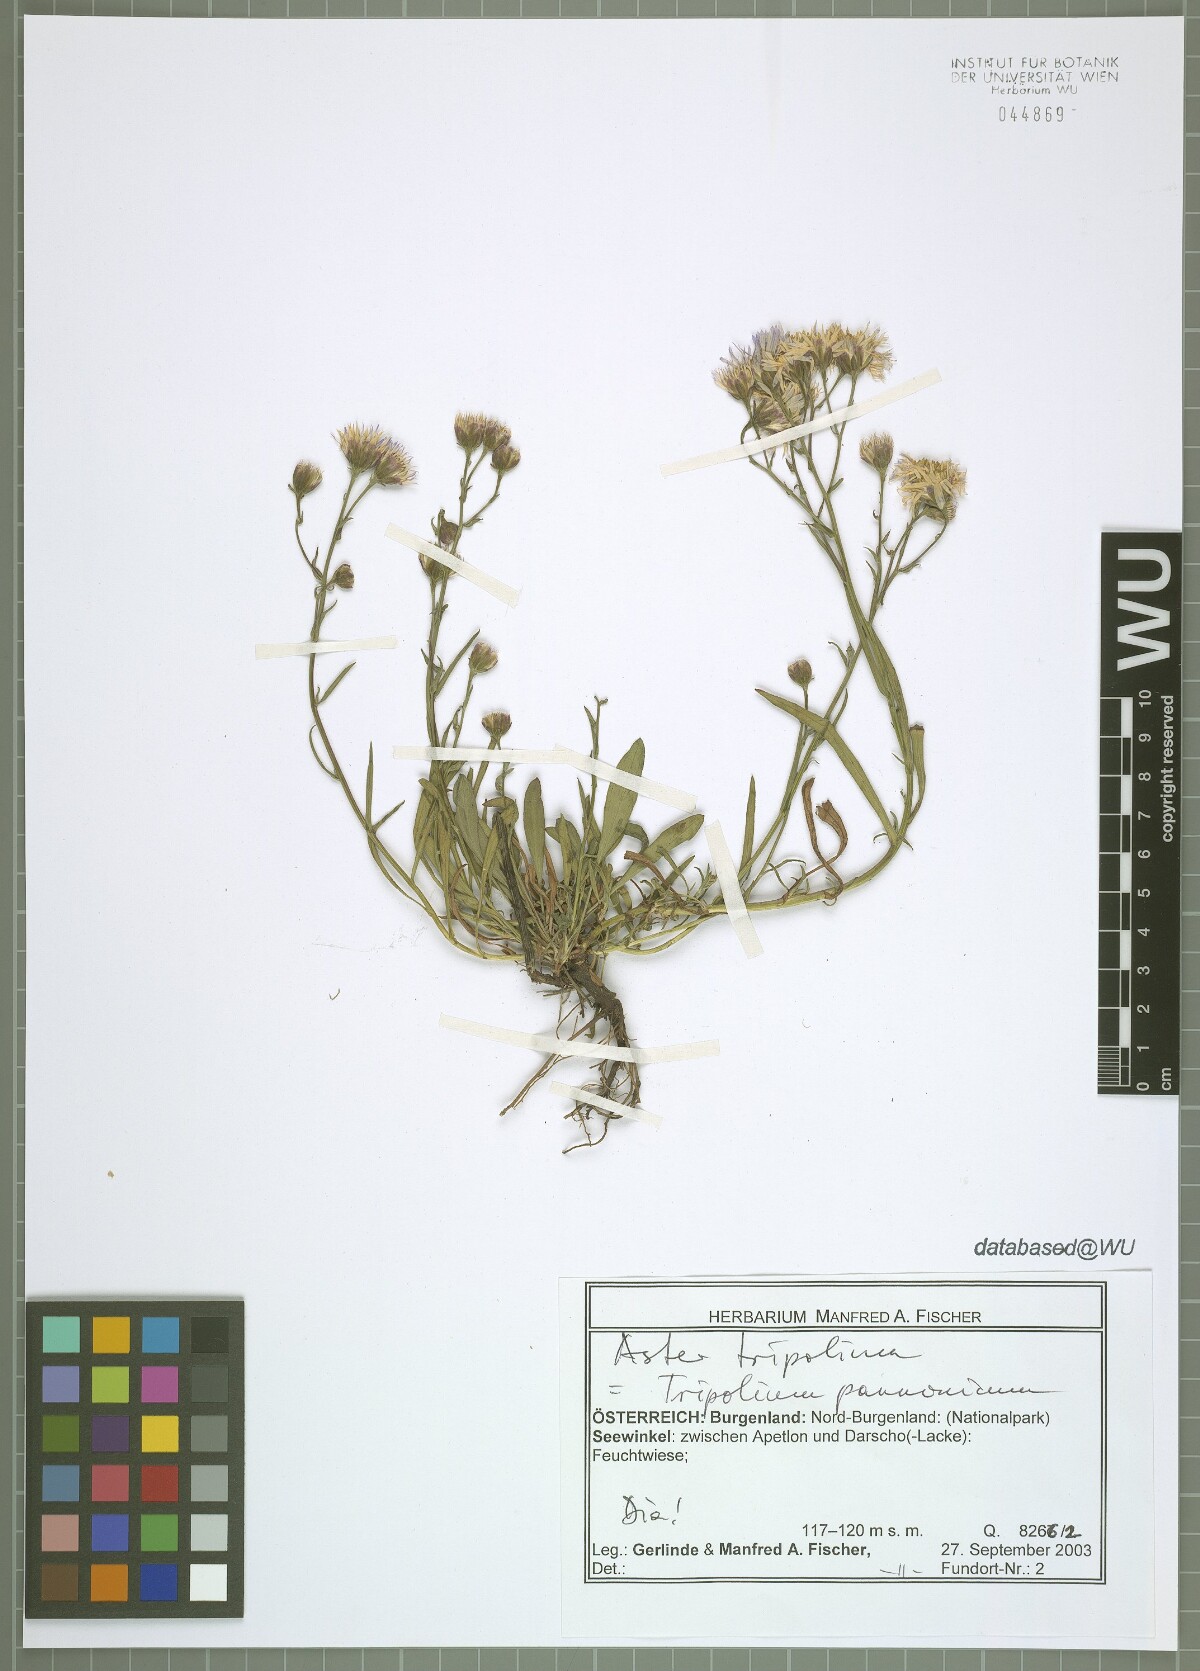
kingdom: Plantae
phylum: Tracheophyta
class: Magnoliopsida
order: Asterales
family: Asteraceae
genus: Tripolium
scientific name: Tripolium pannonicum
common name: Sea aster
